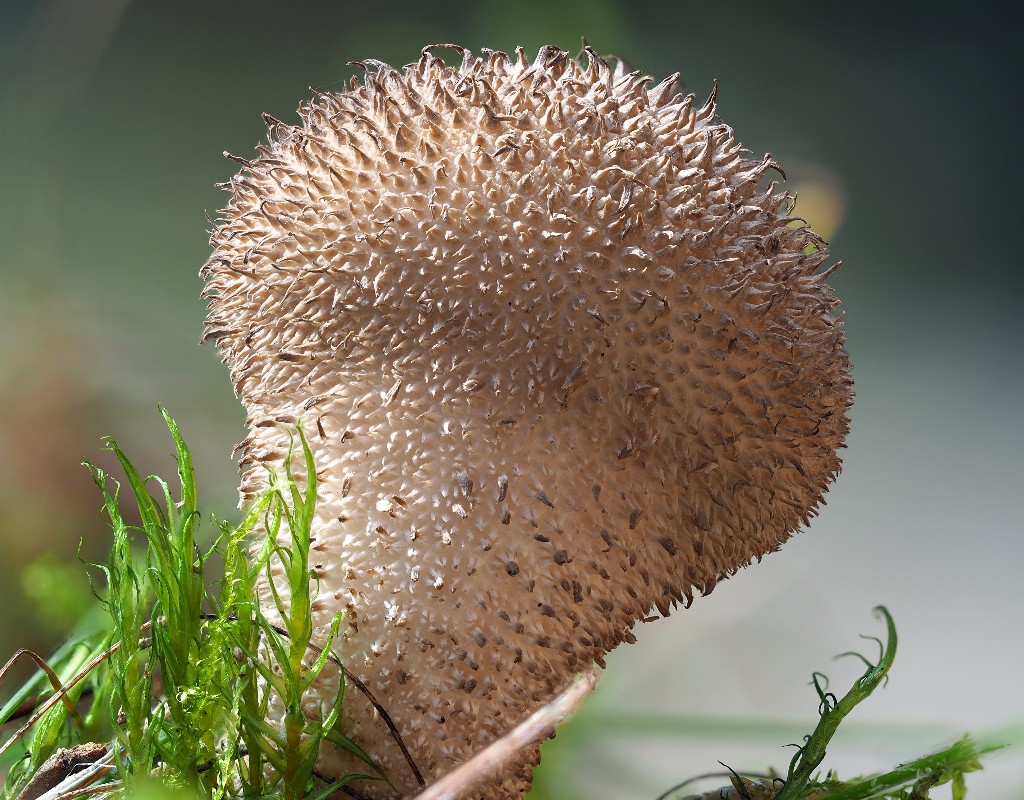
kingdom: Fungi
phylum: Basidiomycota
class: Agaricomycetes
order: Agaricales
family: Lycoperdaceae
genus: Lycoperdon
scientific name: Lycoperdon nigrescens
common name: sortagtig støvbold
